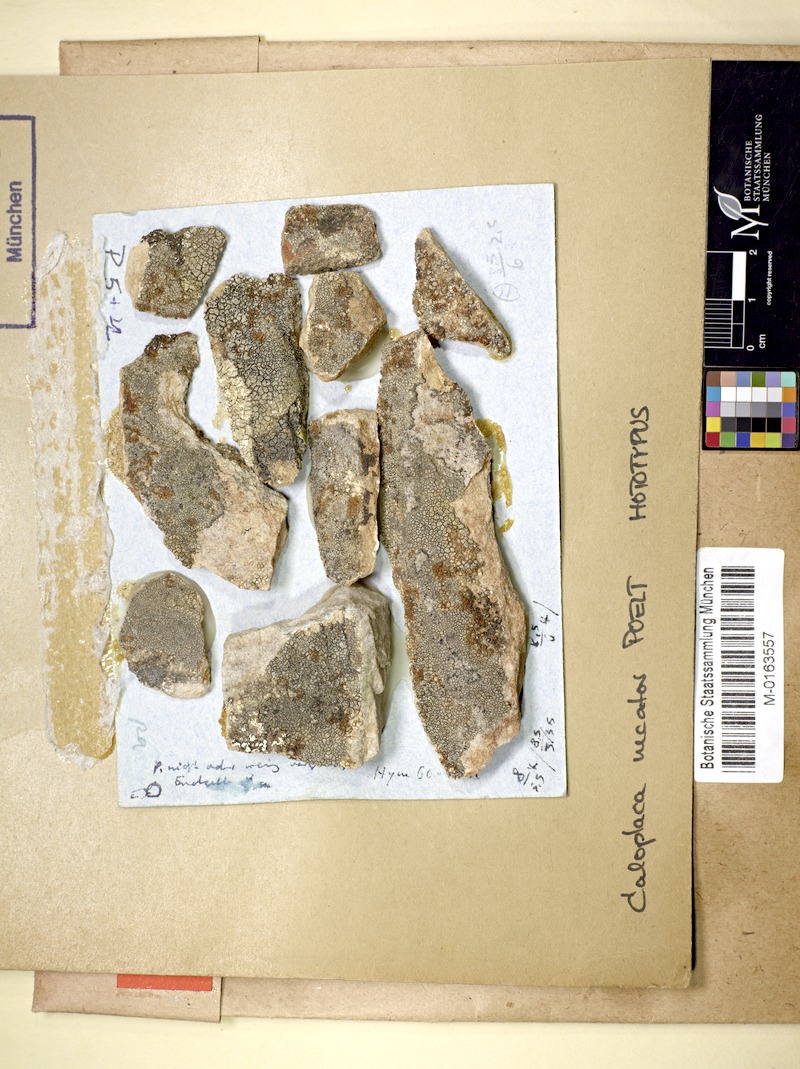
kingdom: Fungi
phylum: Ascomycota
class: Lecanoromycetes
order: Teloschistales
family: Teloschistaceae
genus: Caloplaca
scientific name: Caloplaca necator
